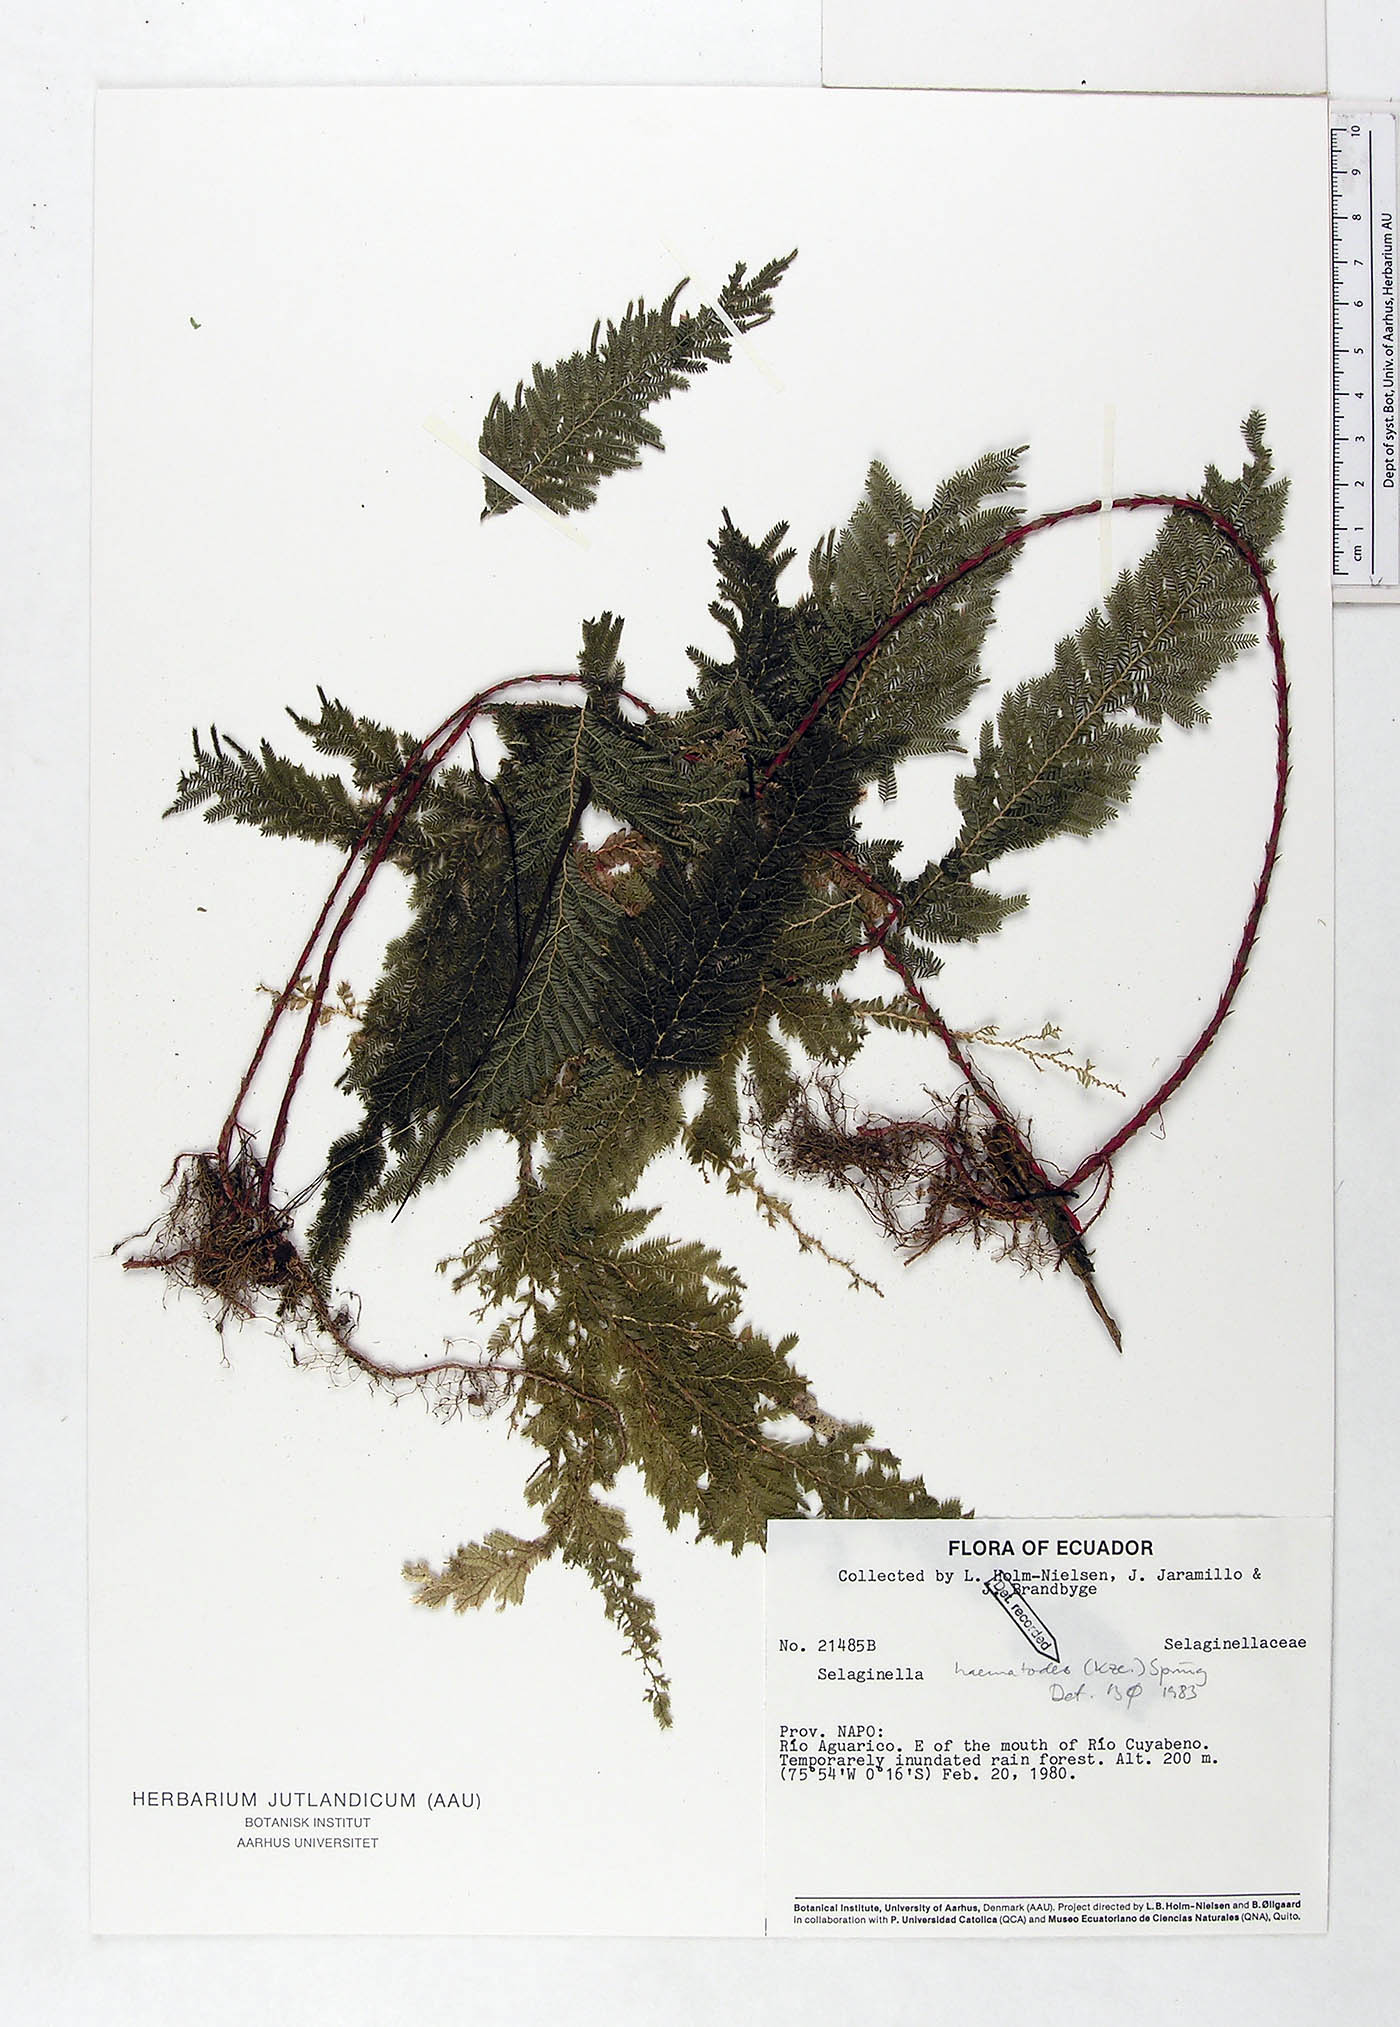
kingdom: Plantae
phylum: Tracheophyta
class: Lycopodiopsida
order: Selaginellales
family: Selaginellaceae
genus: Selaginella
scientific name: Selaginella haematodes
